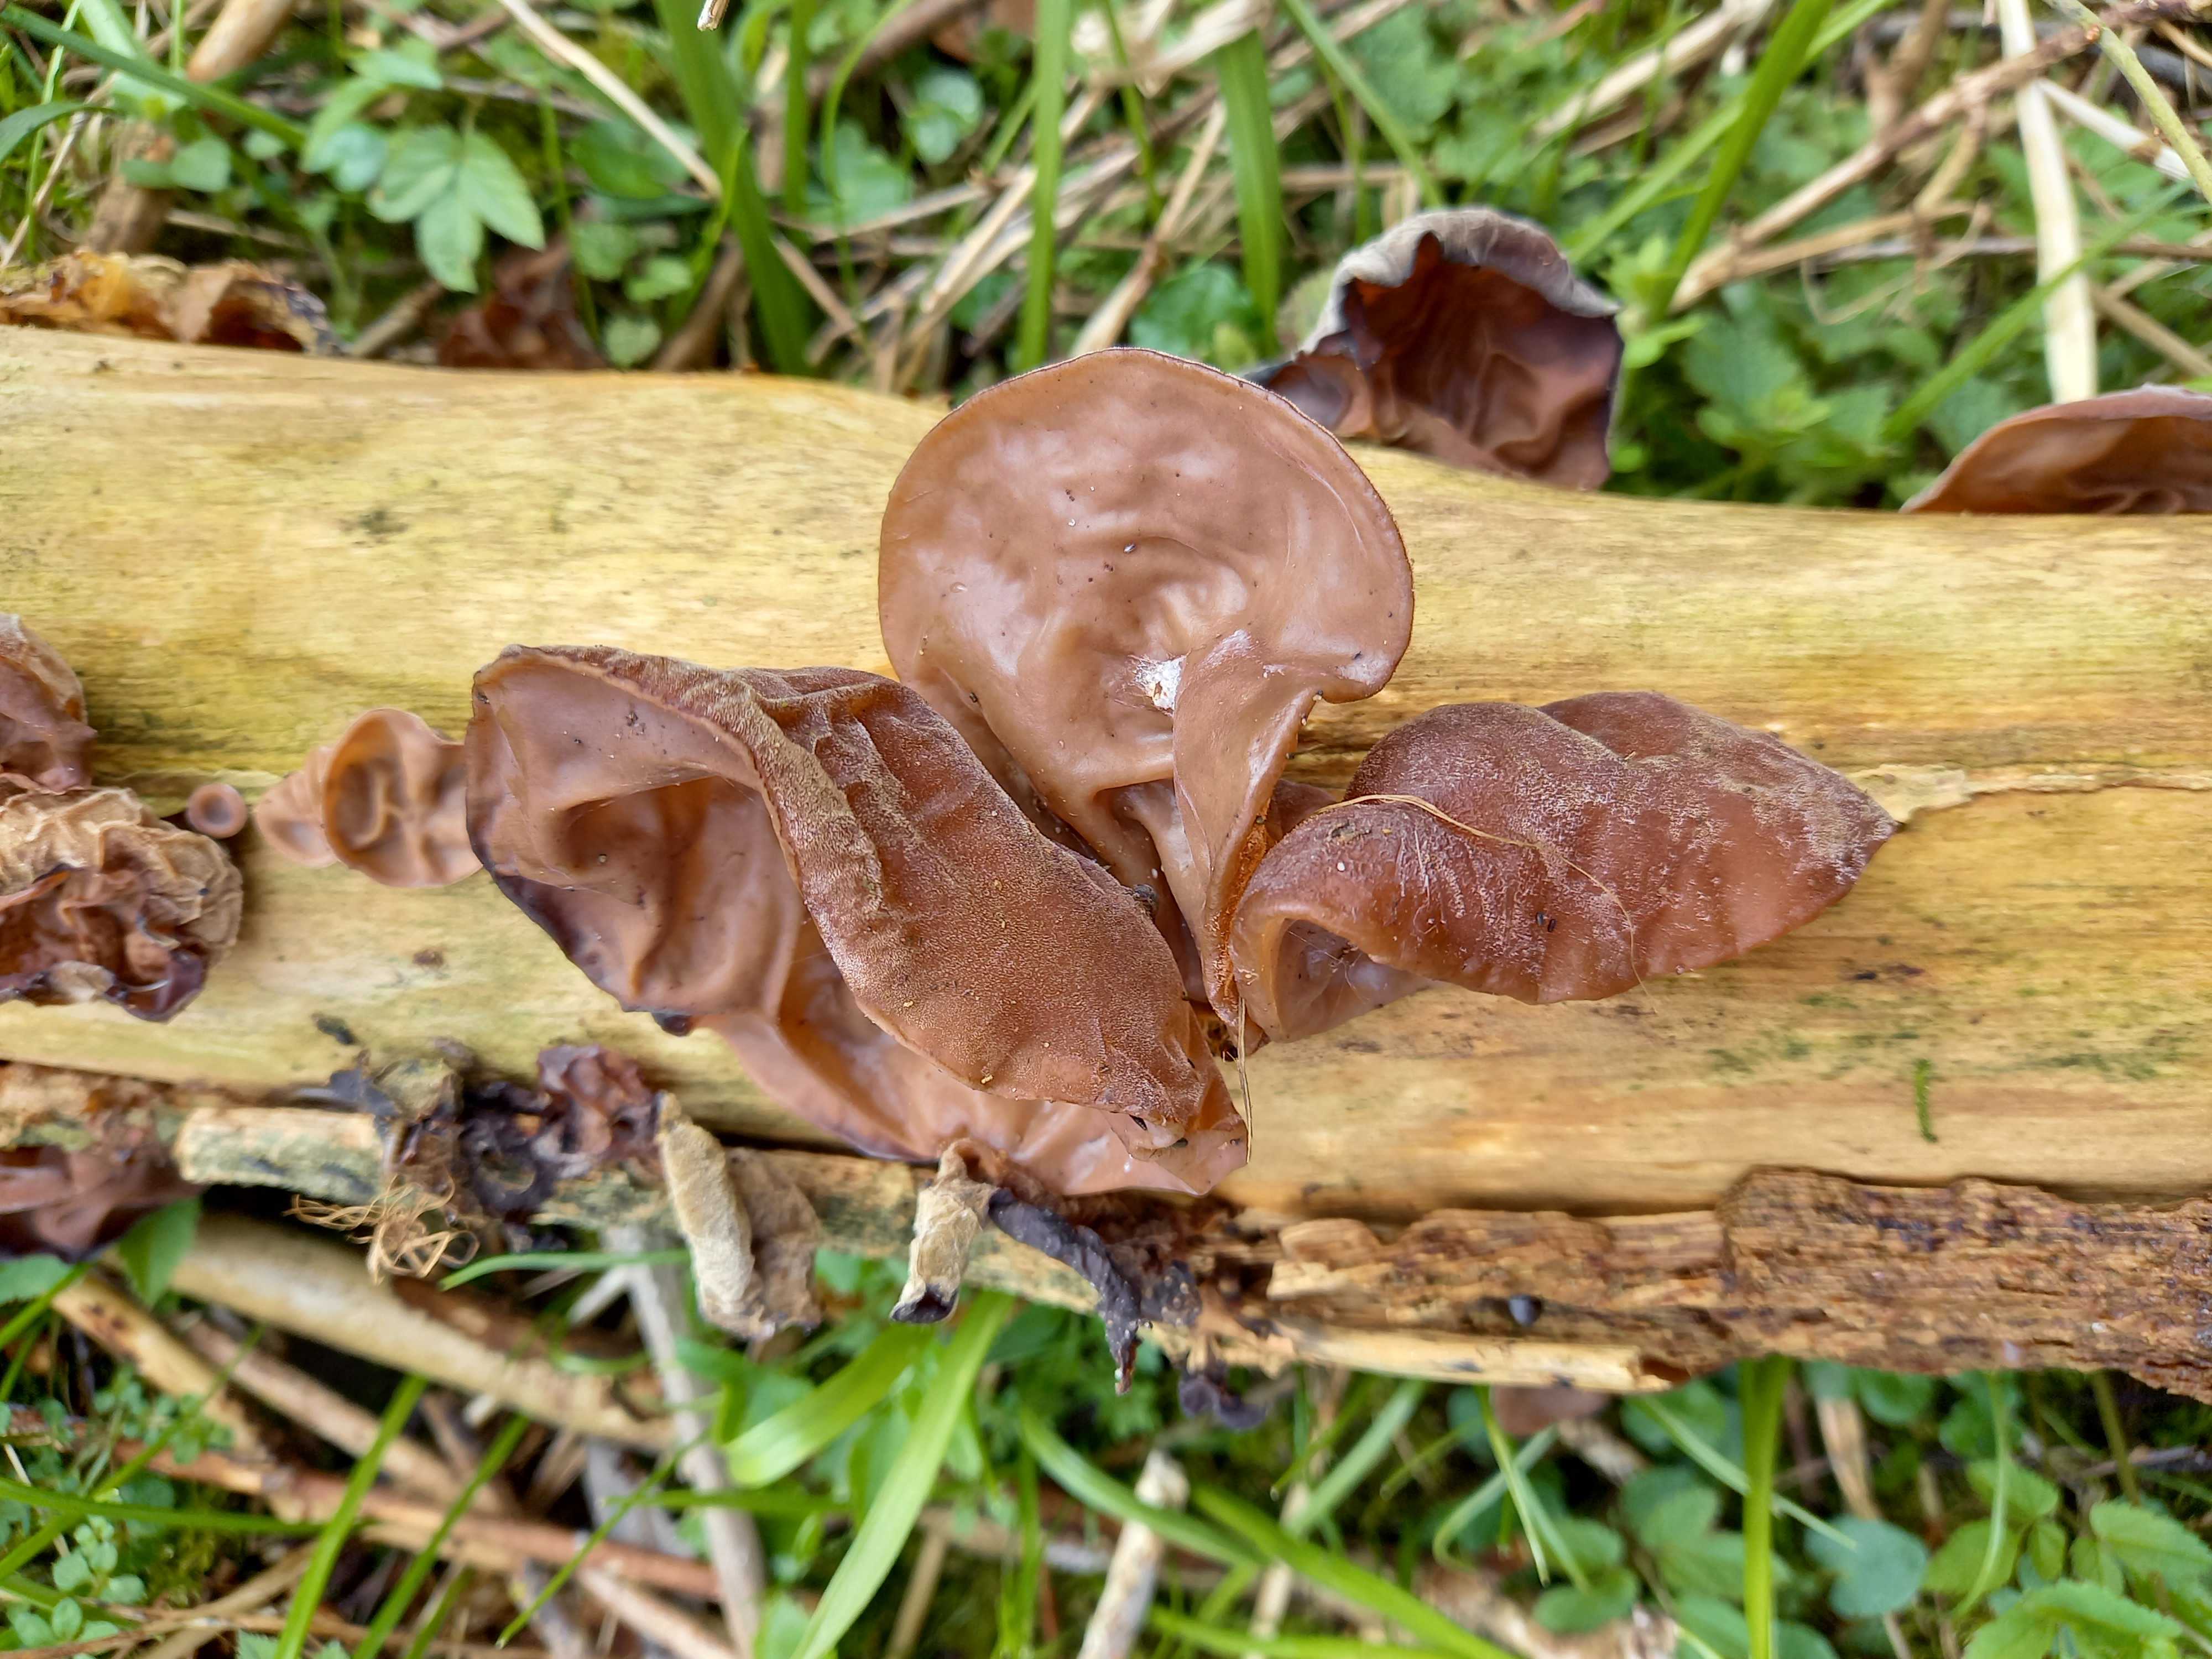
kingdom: Fungi
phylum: Basidiomycota
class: Agaricomycetes
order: Auriculariales
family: Auriculariaceae
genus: Auricularia
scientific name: Auricularia auricula-judae
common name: almindelig judasøre
